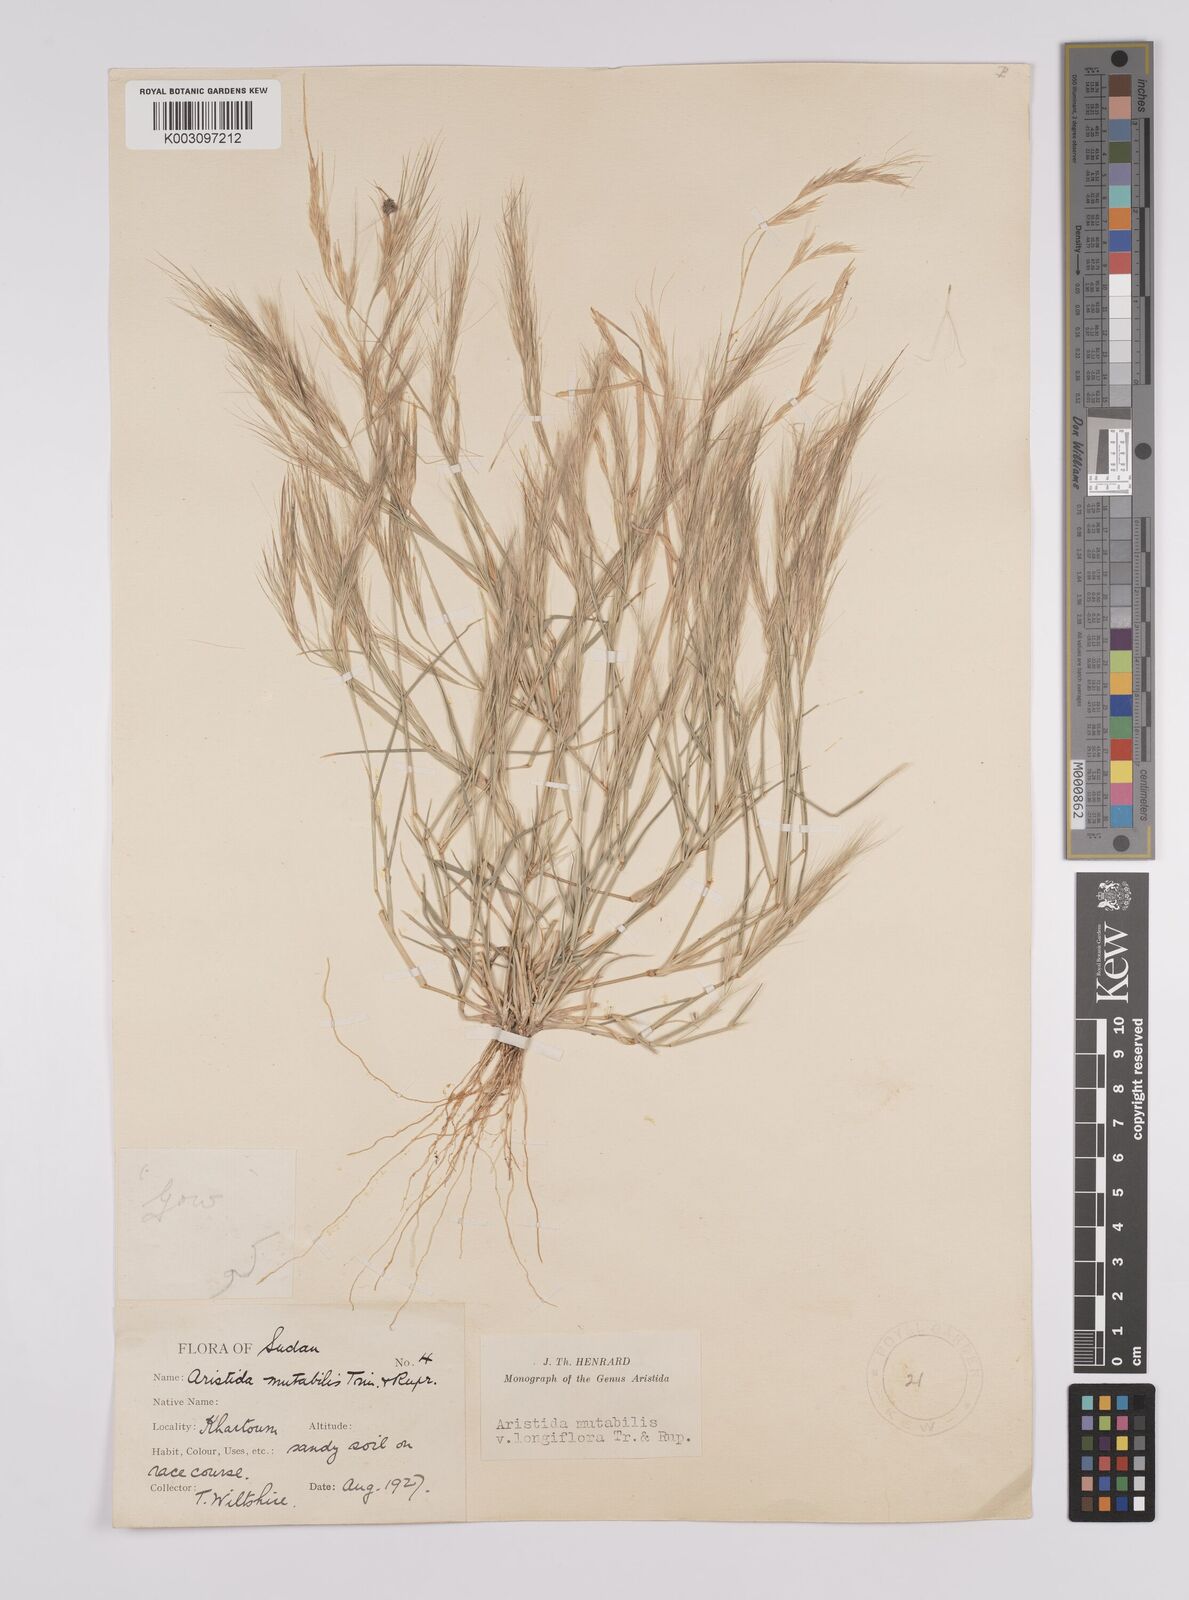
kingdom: Plantae
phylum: Tracheophyta
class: Liliopsida
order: Poales
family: Poaceae
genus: Aristida
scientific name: Aristida mutabilis
